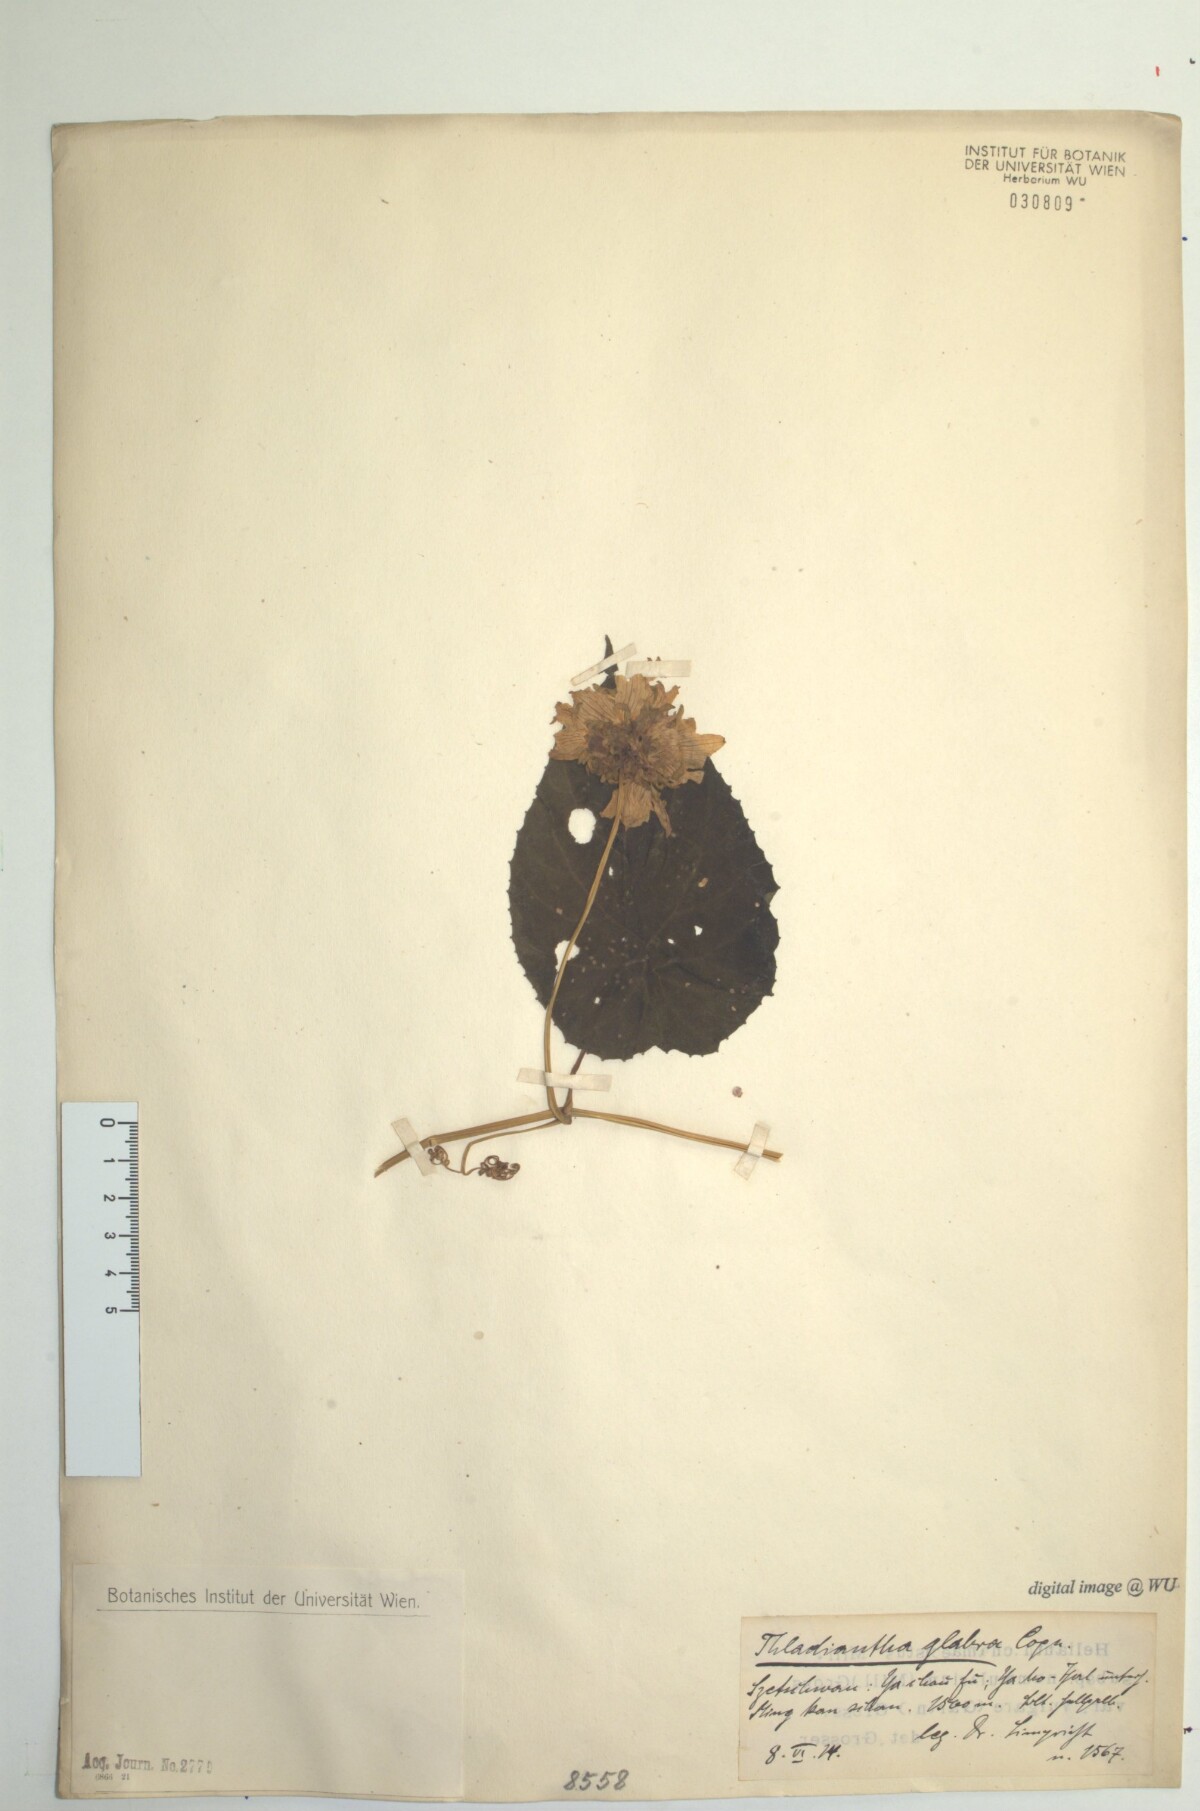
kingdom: Plantae
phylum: Tracheophyta
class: Magnoliopsida
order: Cucurbitales
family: Cucurbitaceae
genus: Thladiantha
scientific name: Thladiantha oliveri
